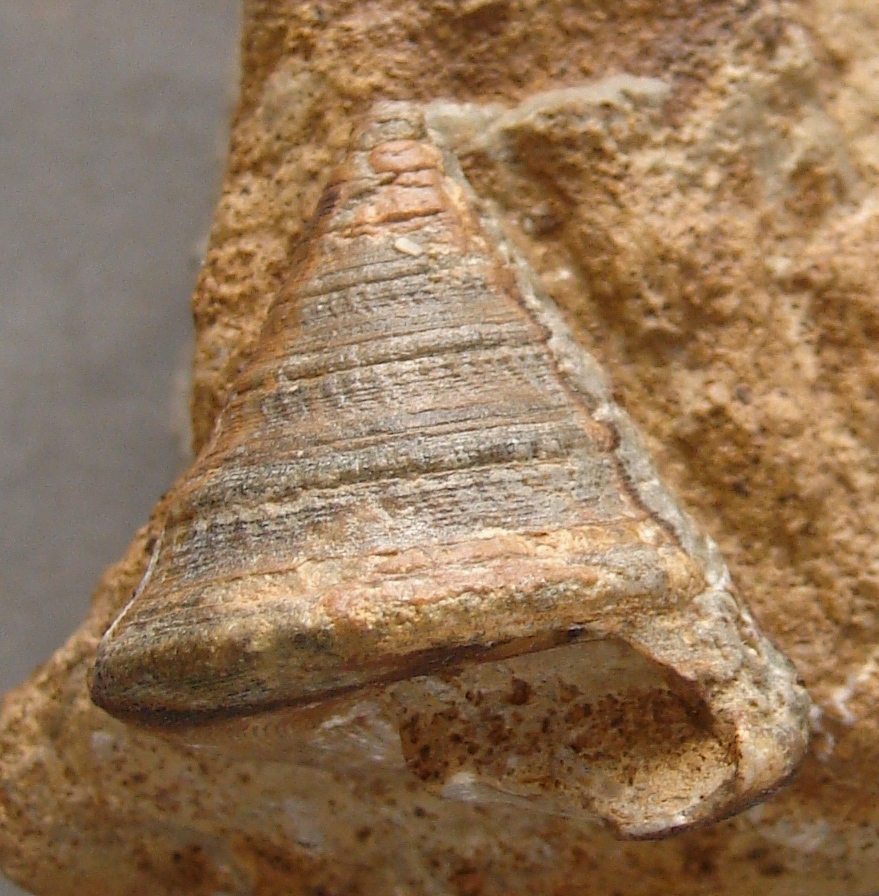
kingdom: Animalia
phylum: Mollusca
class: Gastropoda
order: Pleurotomariida
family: Pleurotomariidae
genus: Pyrgotrochus
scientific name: Pyrgotrochus elongatus
